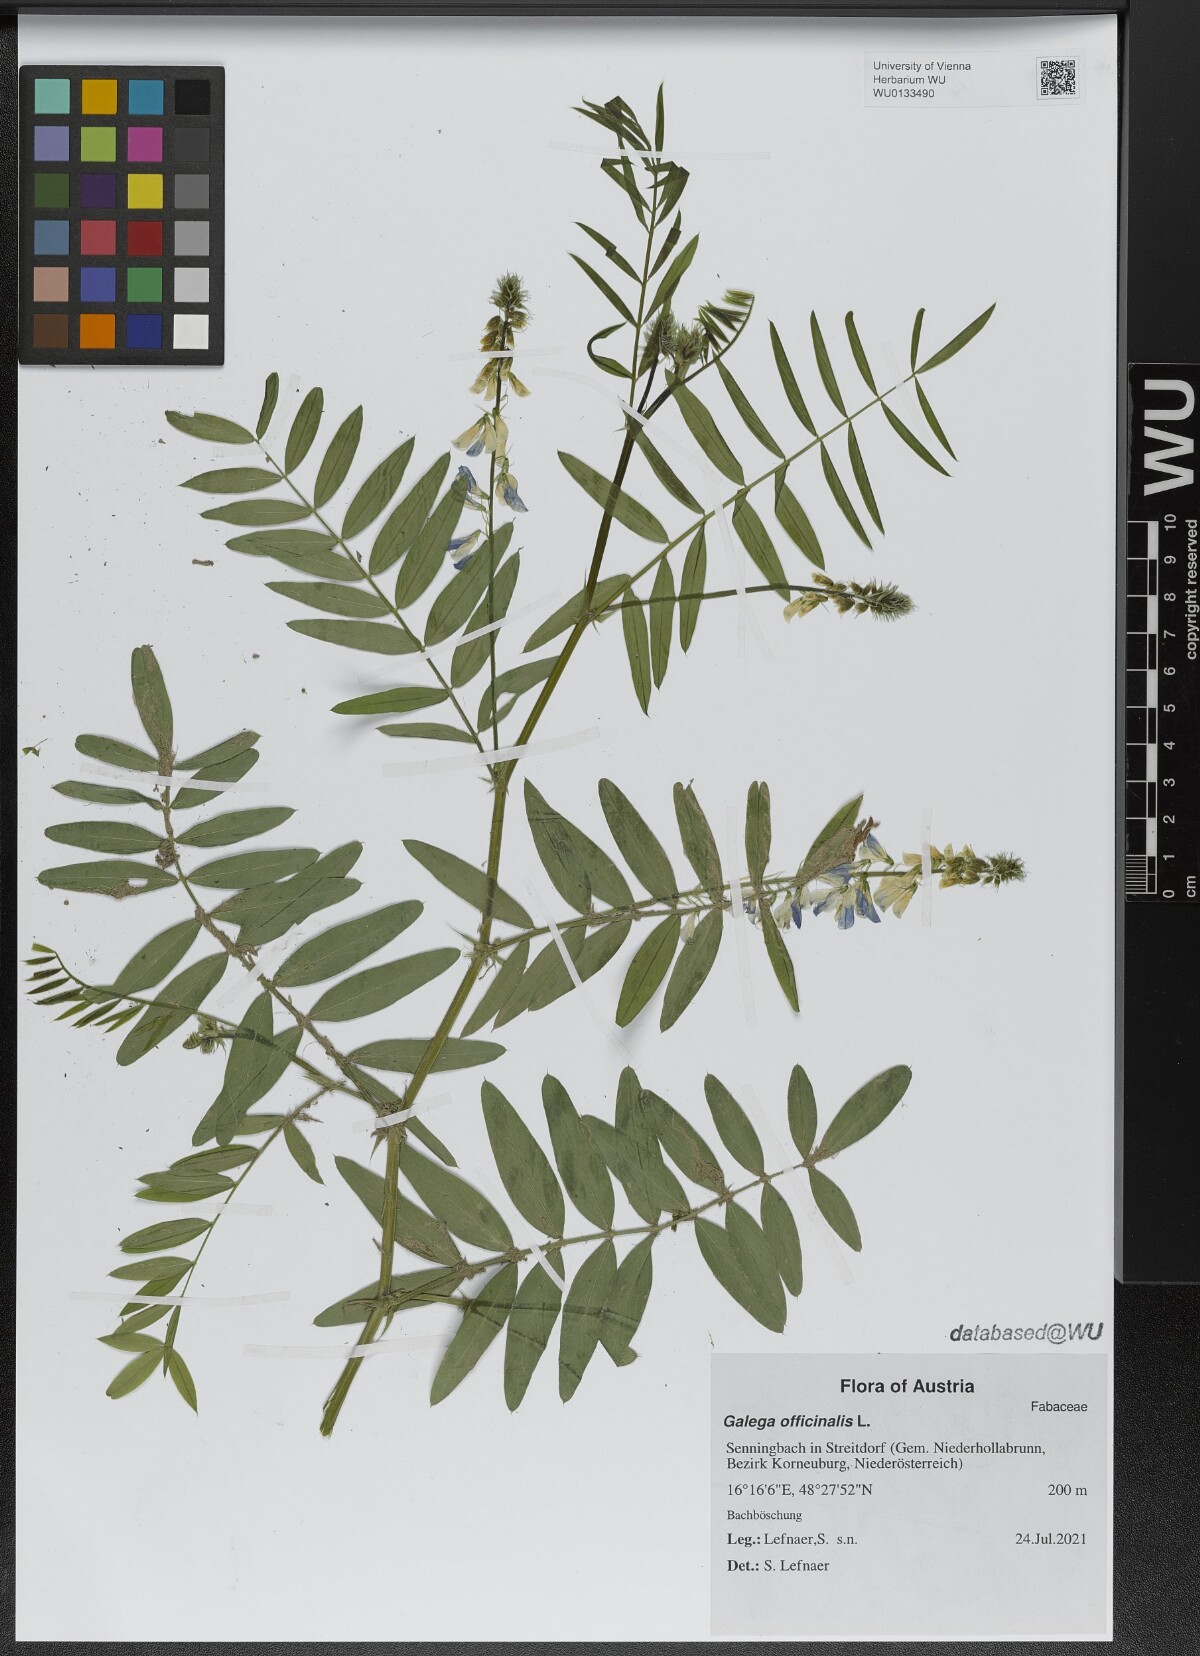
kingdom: Plantae
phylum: Tracheophyta
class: Magnoliopsida
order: Fabales
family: Fabaceae
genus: Galega
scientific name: Galega officinalis
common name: Goat's-rue
